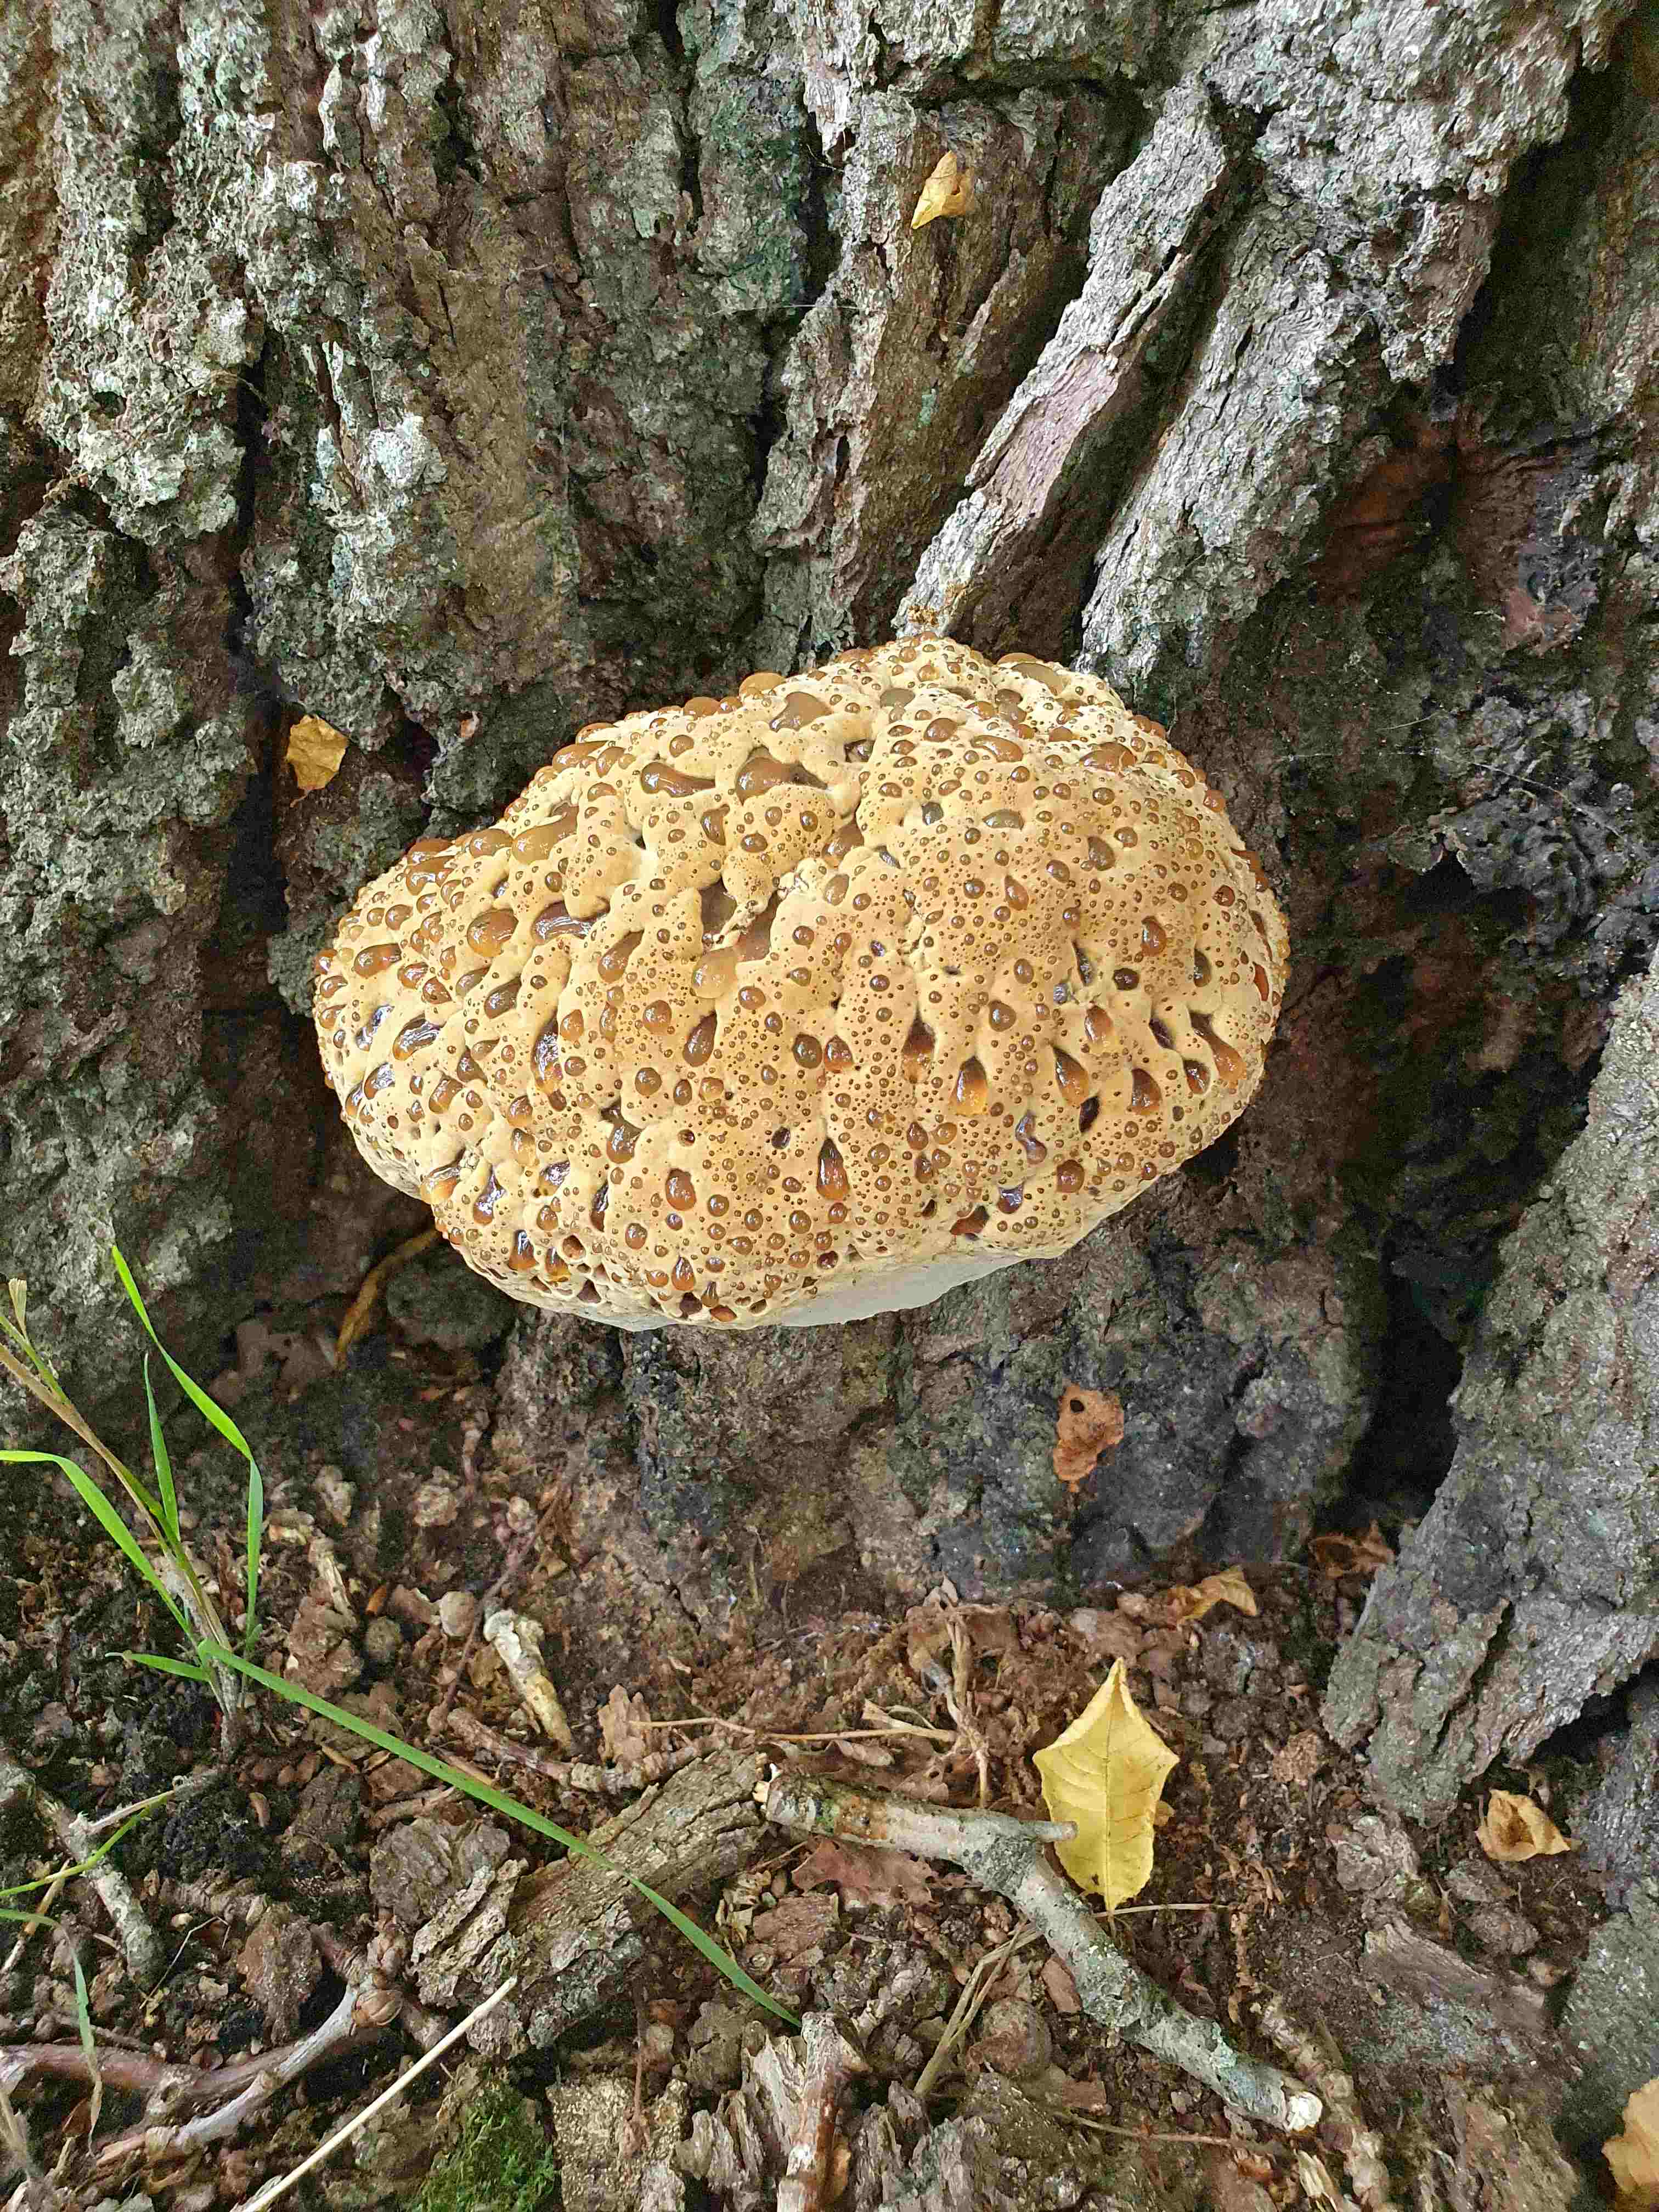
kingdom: Fungi
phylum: Basidiomycota
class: Agaricomycetes
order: Hymenochaetales
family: Hymenochaetaceae
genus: Pseudoinonotus
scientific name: Pseudoinonotus dryadeus
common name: ege-spejlporesvamp
